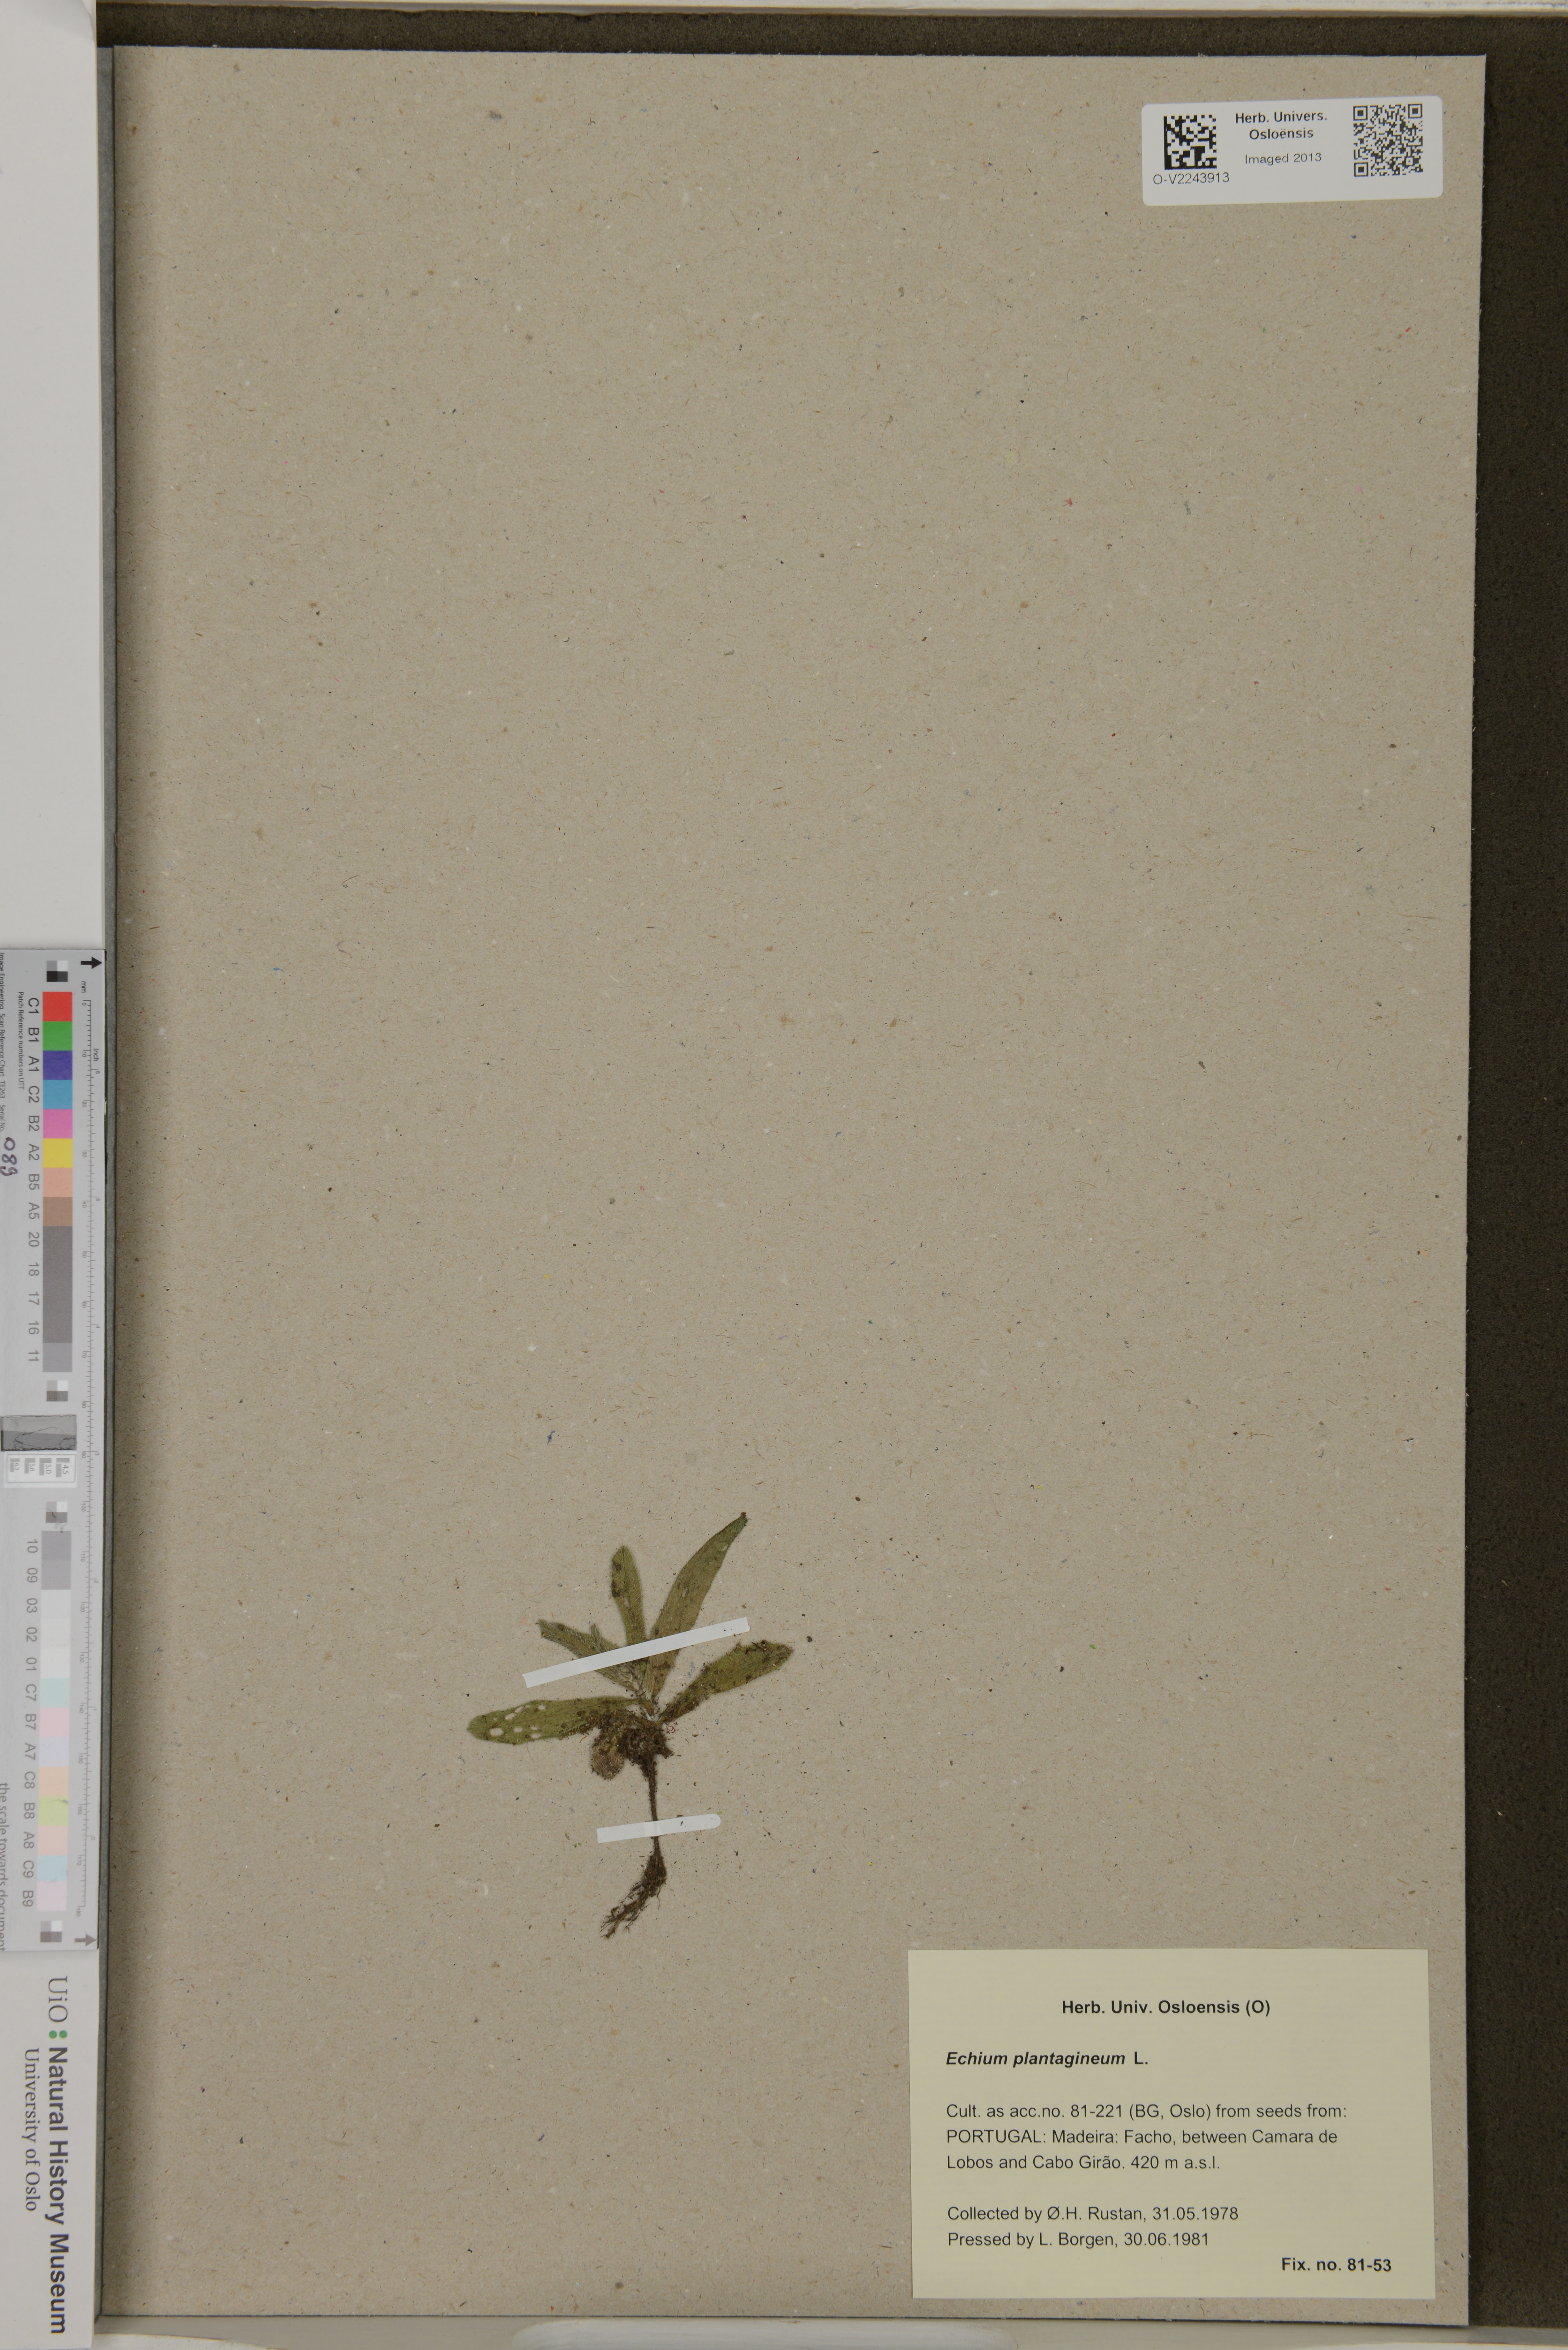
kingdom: Plantae
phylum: Tracheophyta
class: Magnoliopsida
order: Boraginales
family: Boraginaceae
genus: Echium
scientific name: Echium plantagineum
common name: Purple viper's-bugloss
